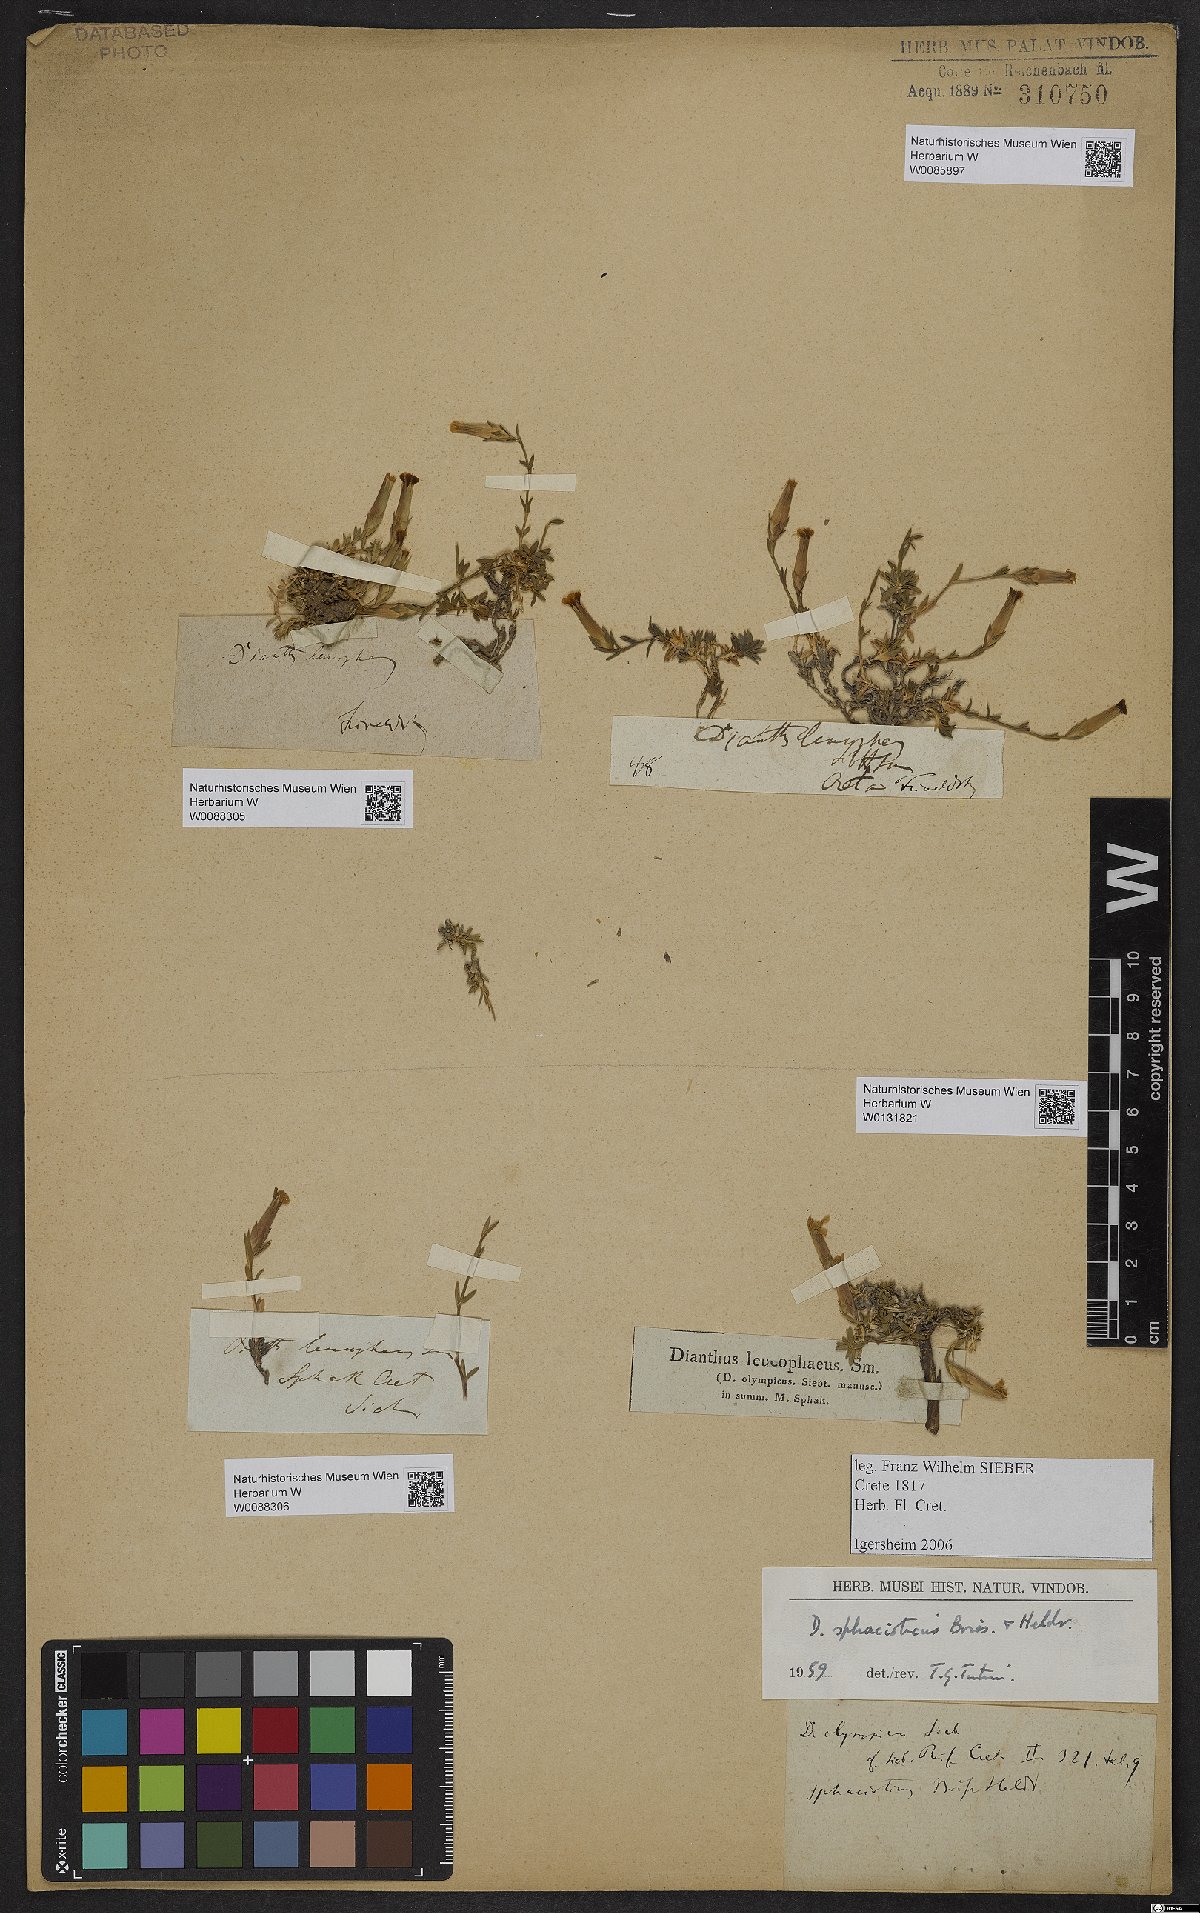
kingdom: Plantae
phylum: Tracheophyta
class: Magnoliopsida
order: Caryophyllales
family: Caryophyllaceae
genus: Dianthus
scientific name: Dianthus sphacioticus
